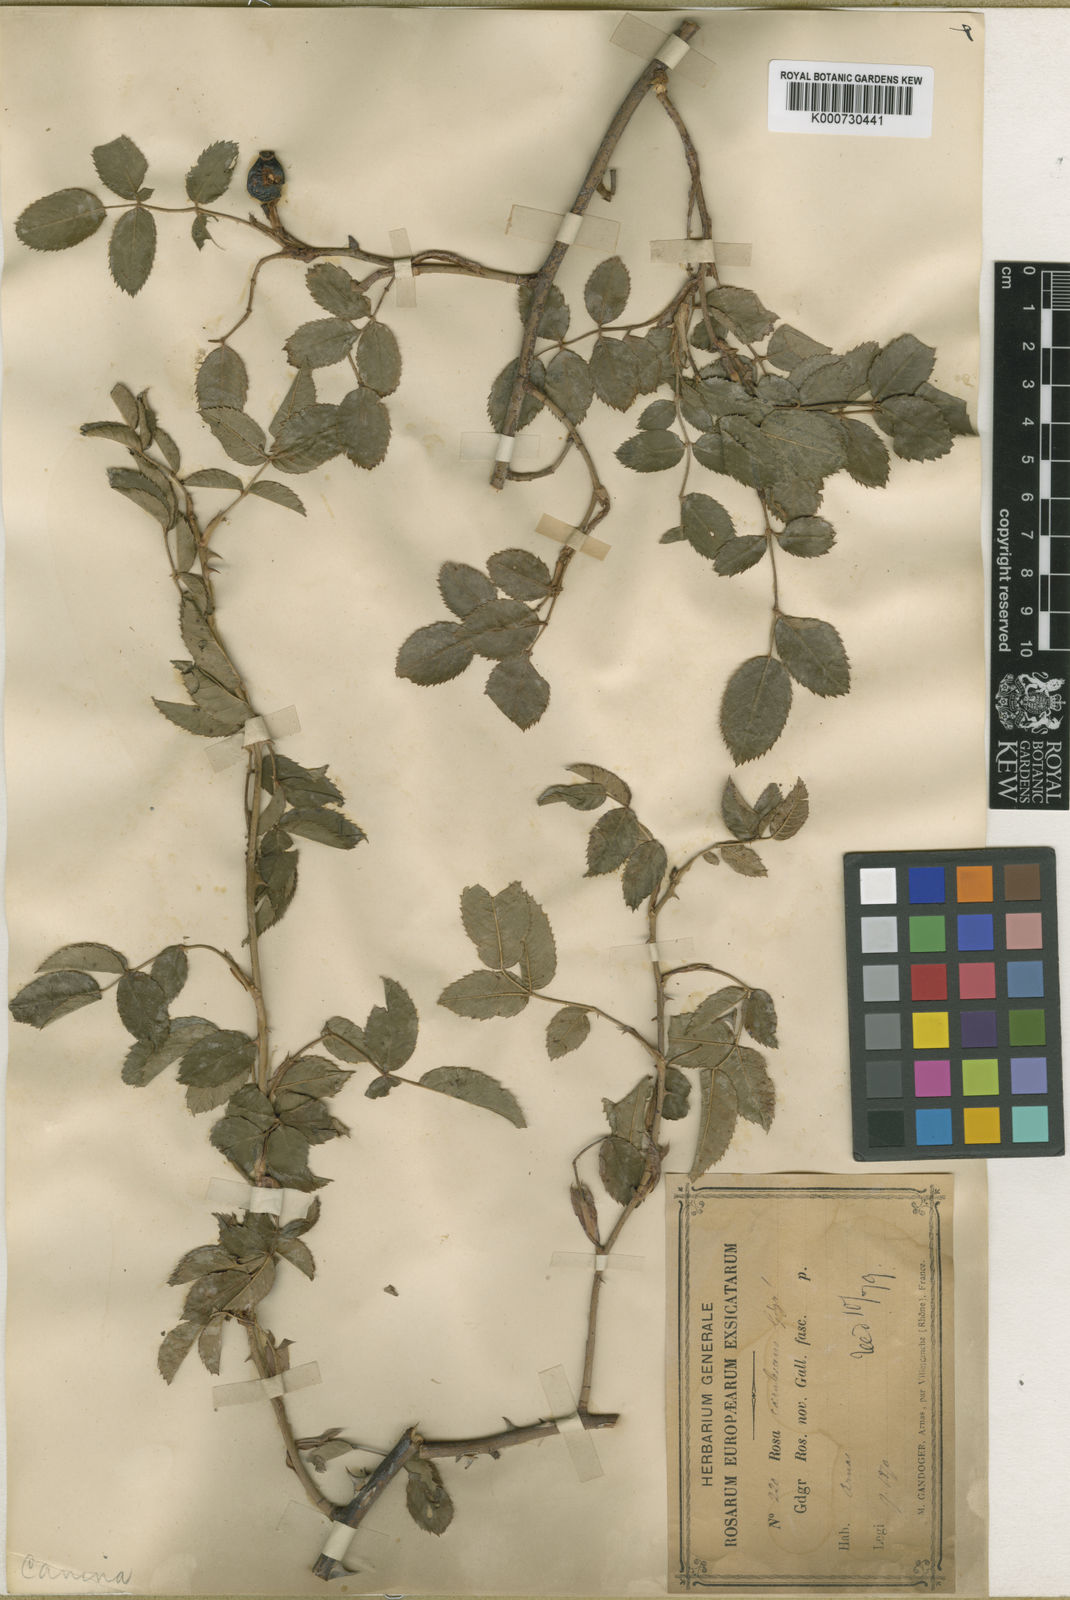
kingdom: Plantae
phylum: Tracheophyta
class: Magnoliopsida
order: Rosales
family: Rosaceae
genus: Rosa
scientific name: Rosa canina
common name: Dog rose
